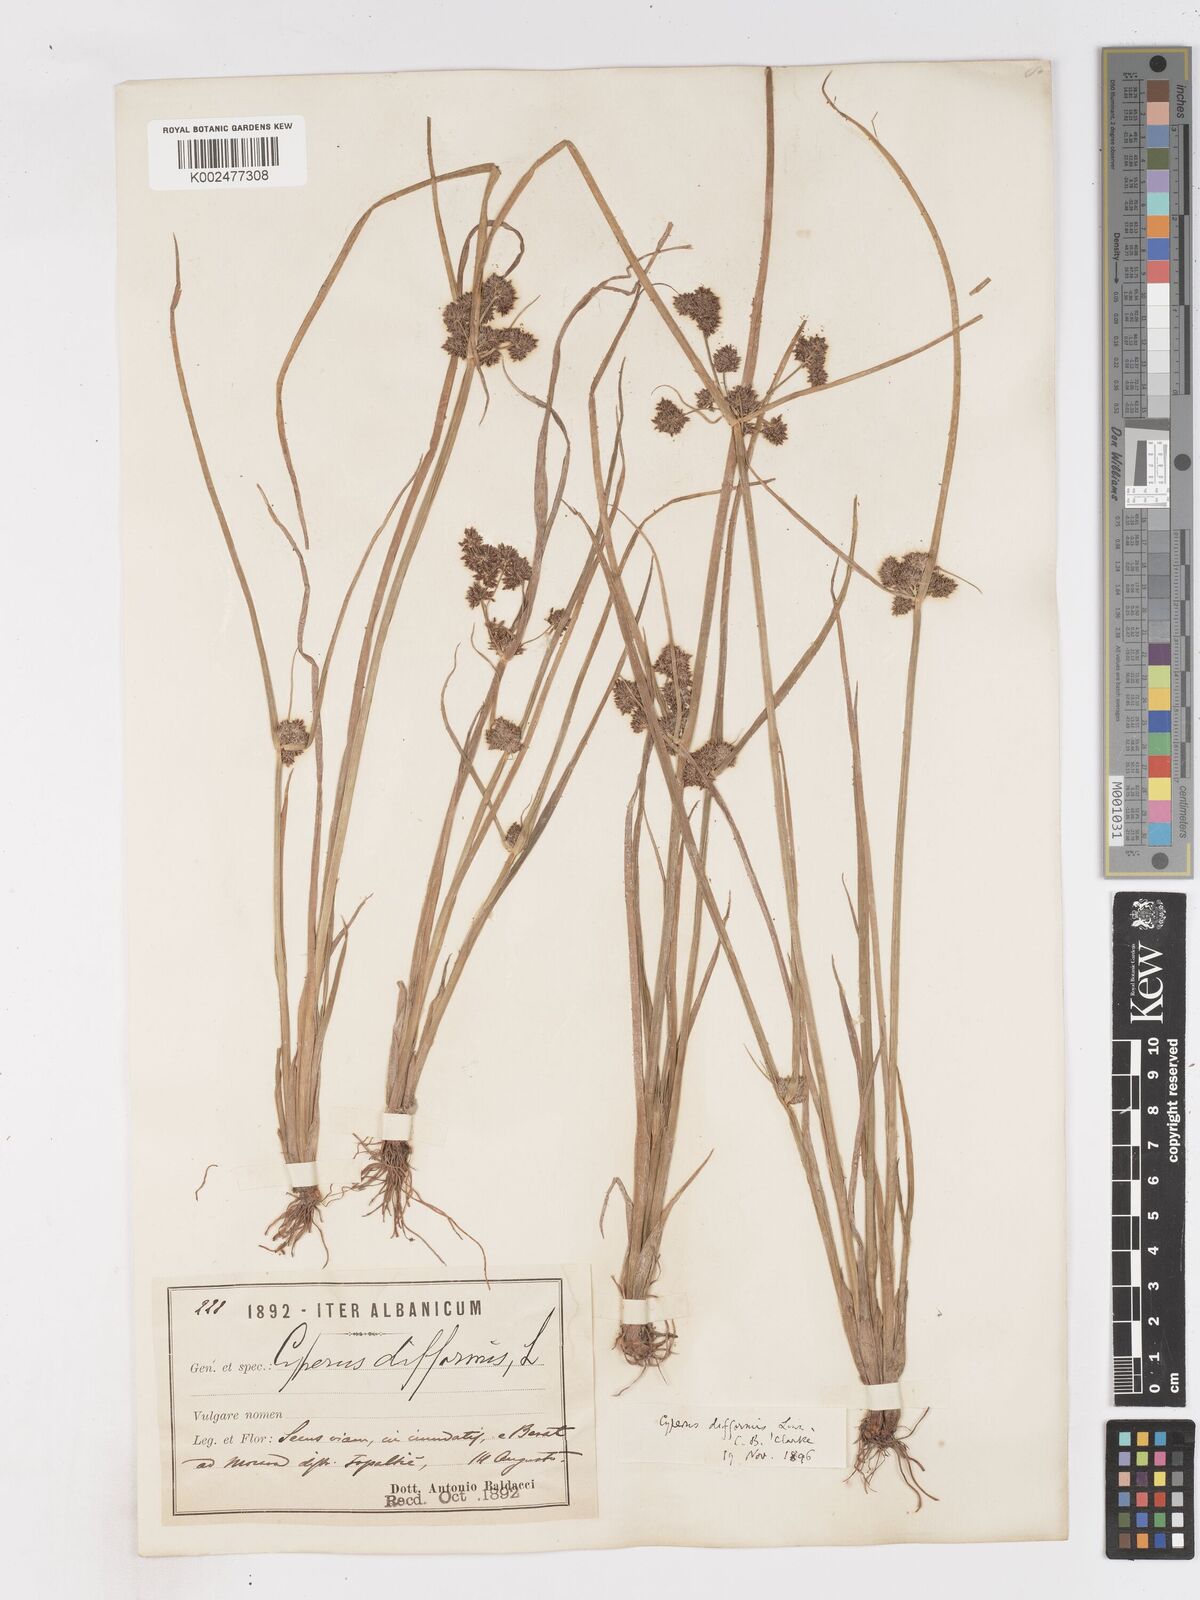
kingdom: Plantae
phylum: Tracheophyta
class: Liliopsida
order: Poales
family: Cyperaceae
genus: Cyperus
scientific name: Cyperus difformis
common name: Variable flatsedge
